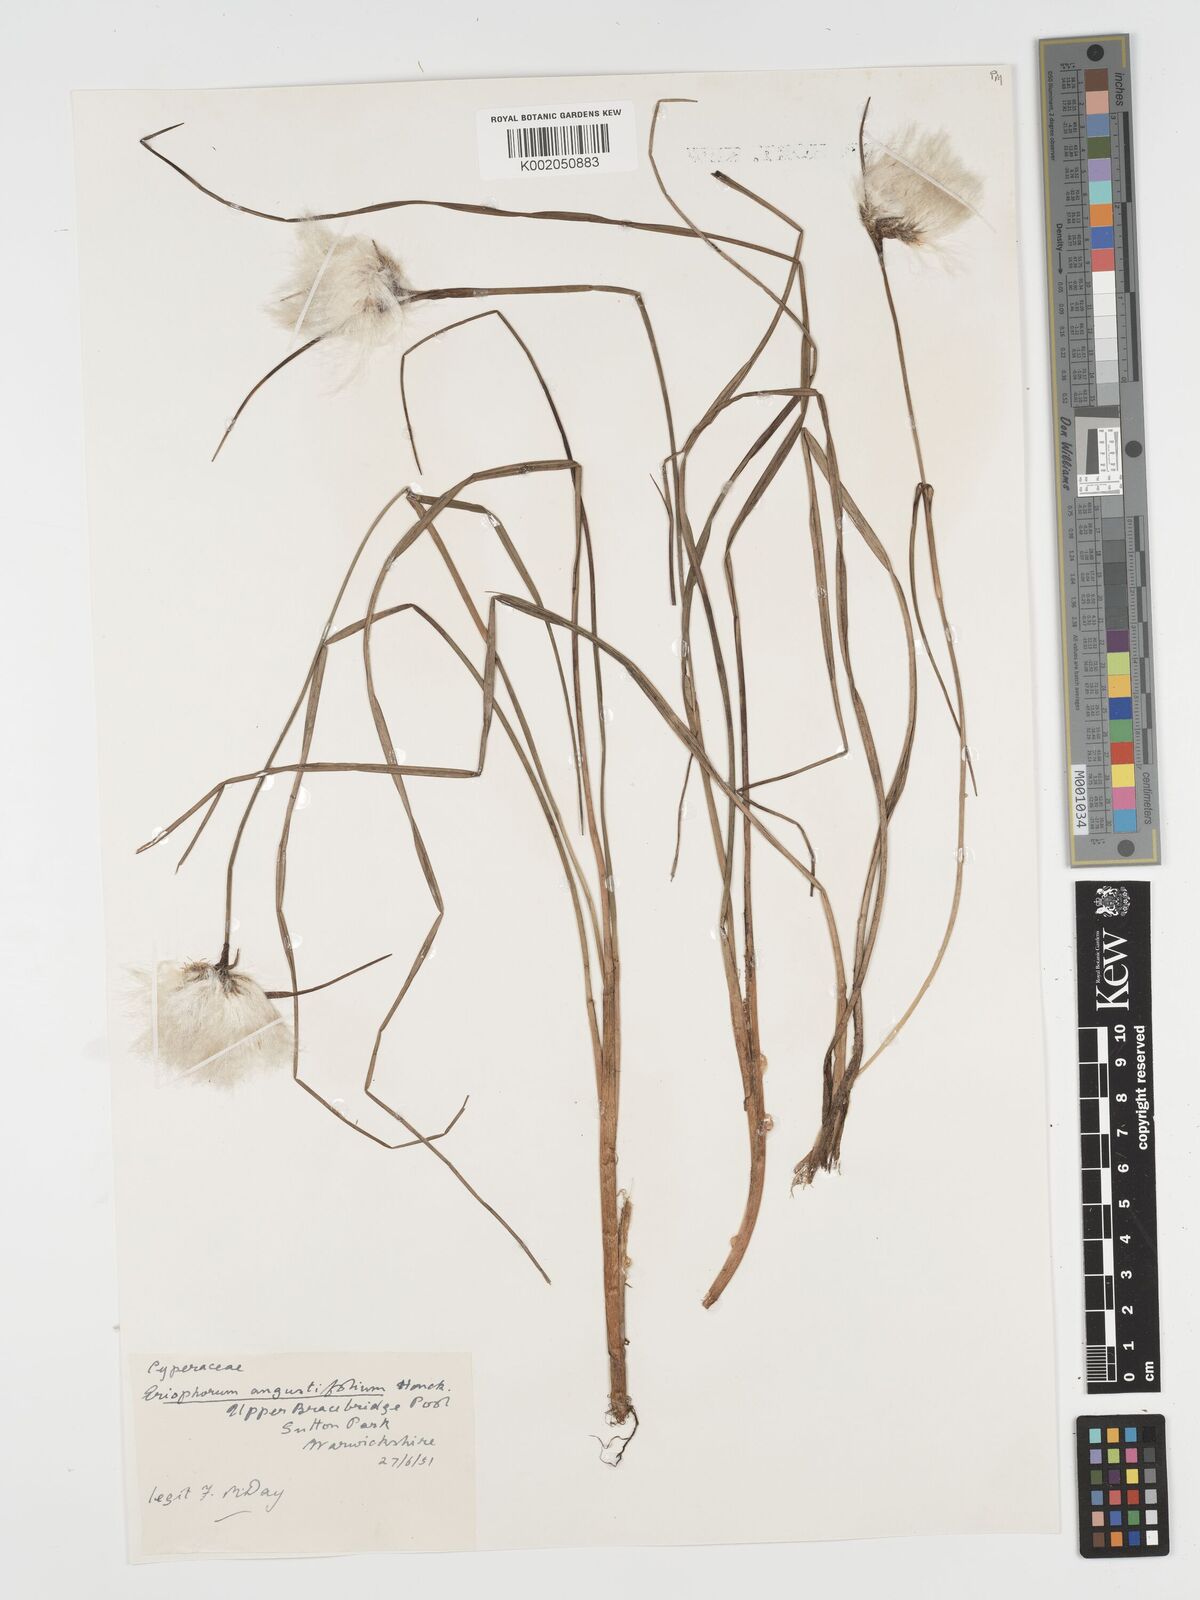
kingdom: Plantae
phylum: Tracheophyta
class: Liliopsida
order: Poales
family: Cyperaceae
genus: Eriophorum
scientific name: Eriophorum angustifolium
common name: Common cottongrass
